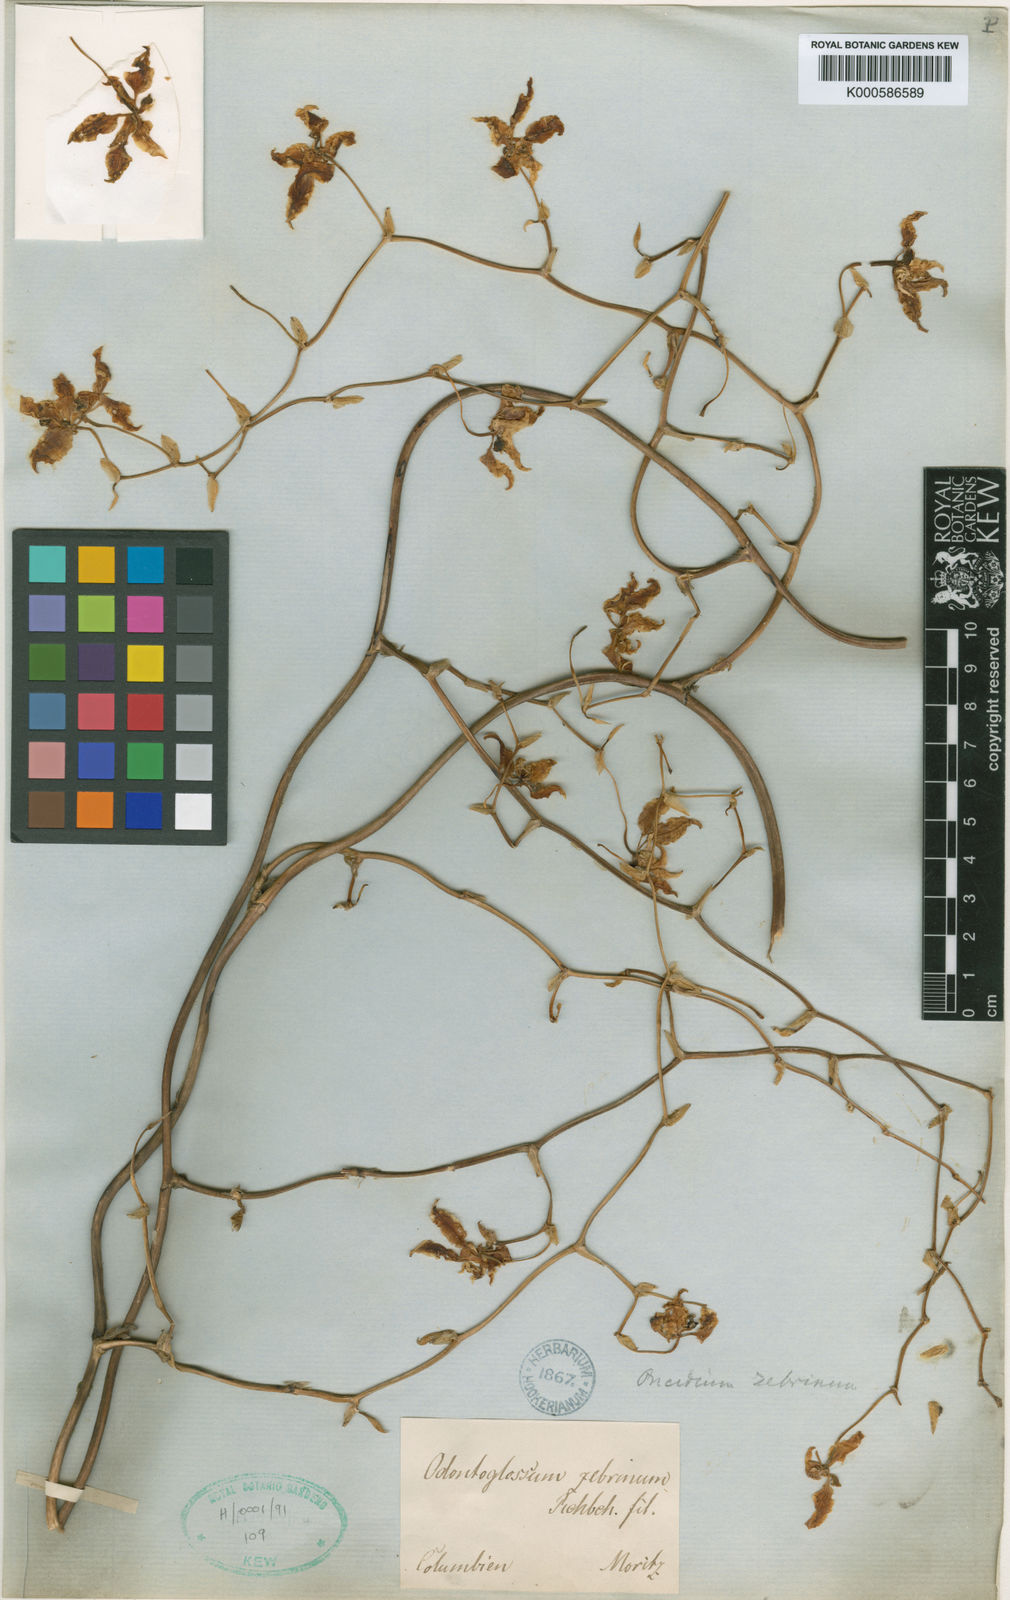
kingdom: Plantae
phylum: Tracheophyta
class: Liliopsida
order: Asparagales
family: Orchidaceae
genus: Cyrtochilum
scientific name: Cyrtochilum zebrinum
